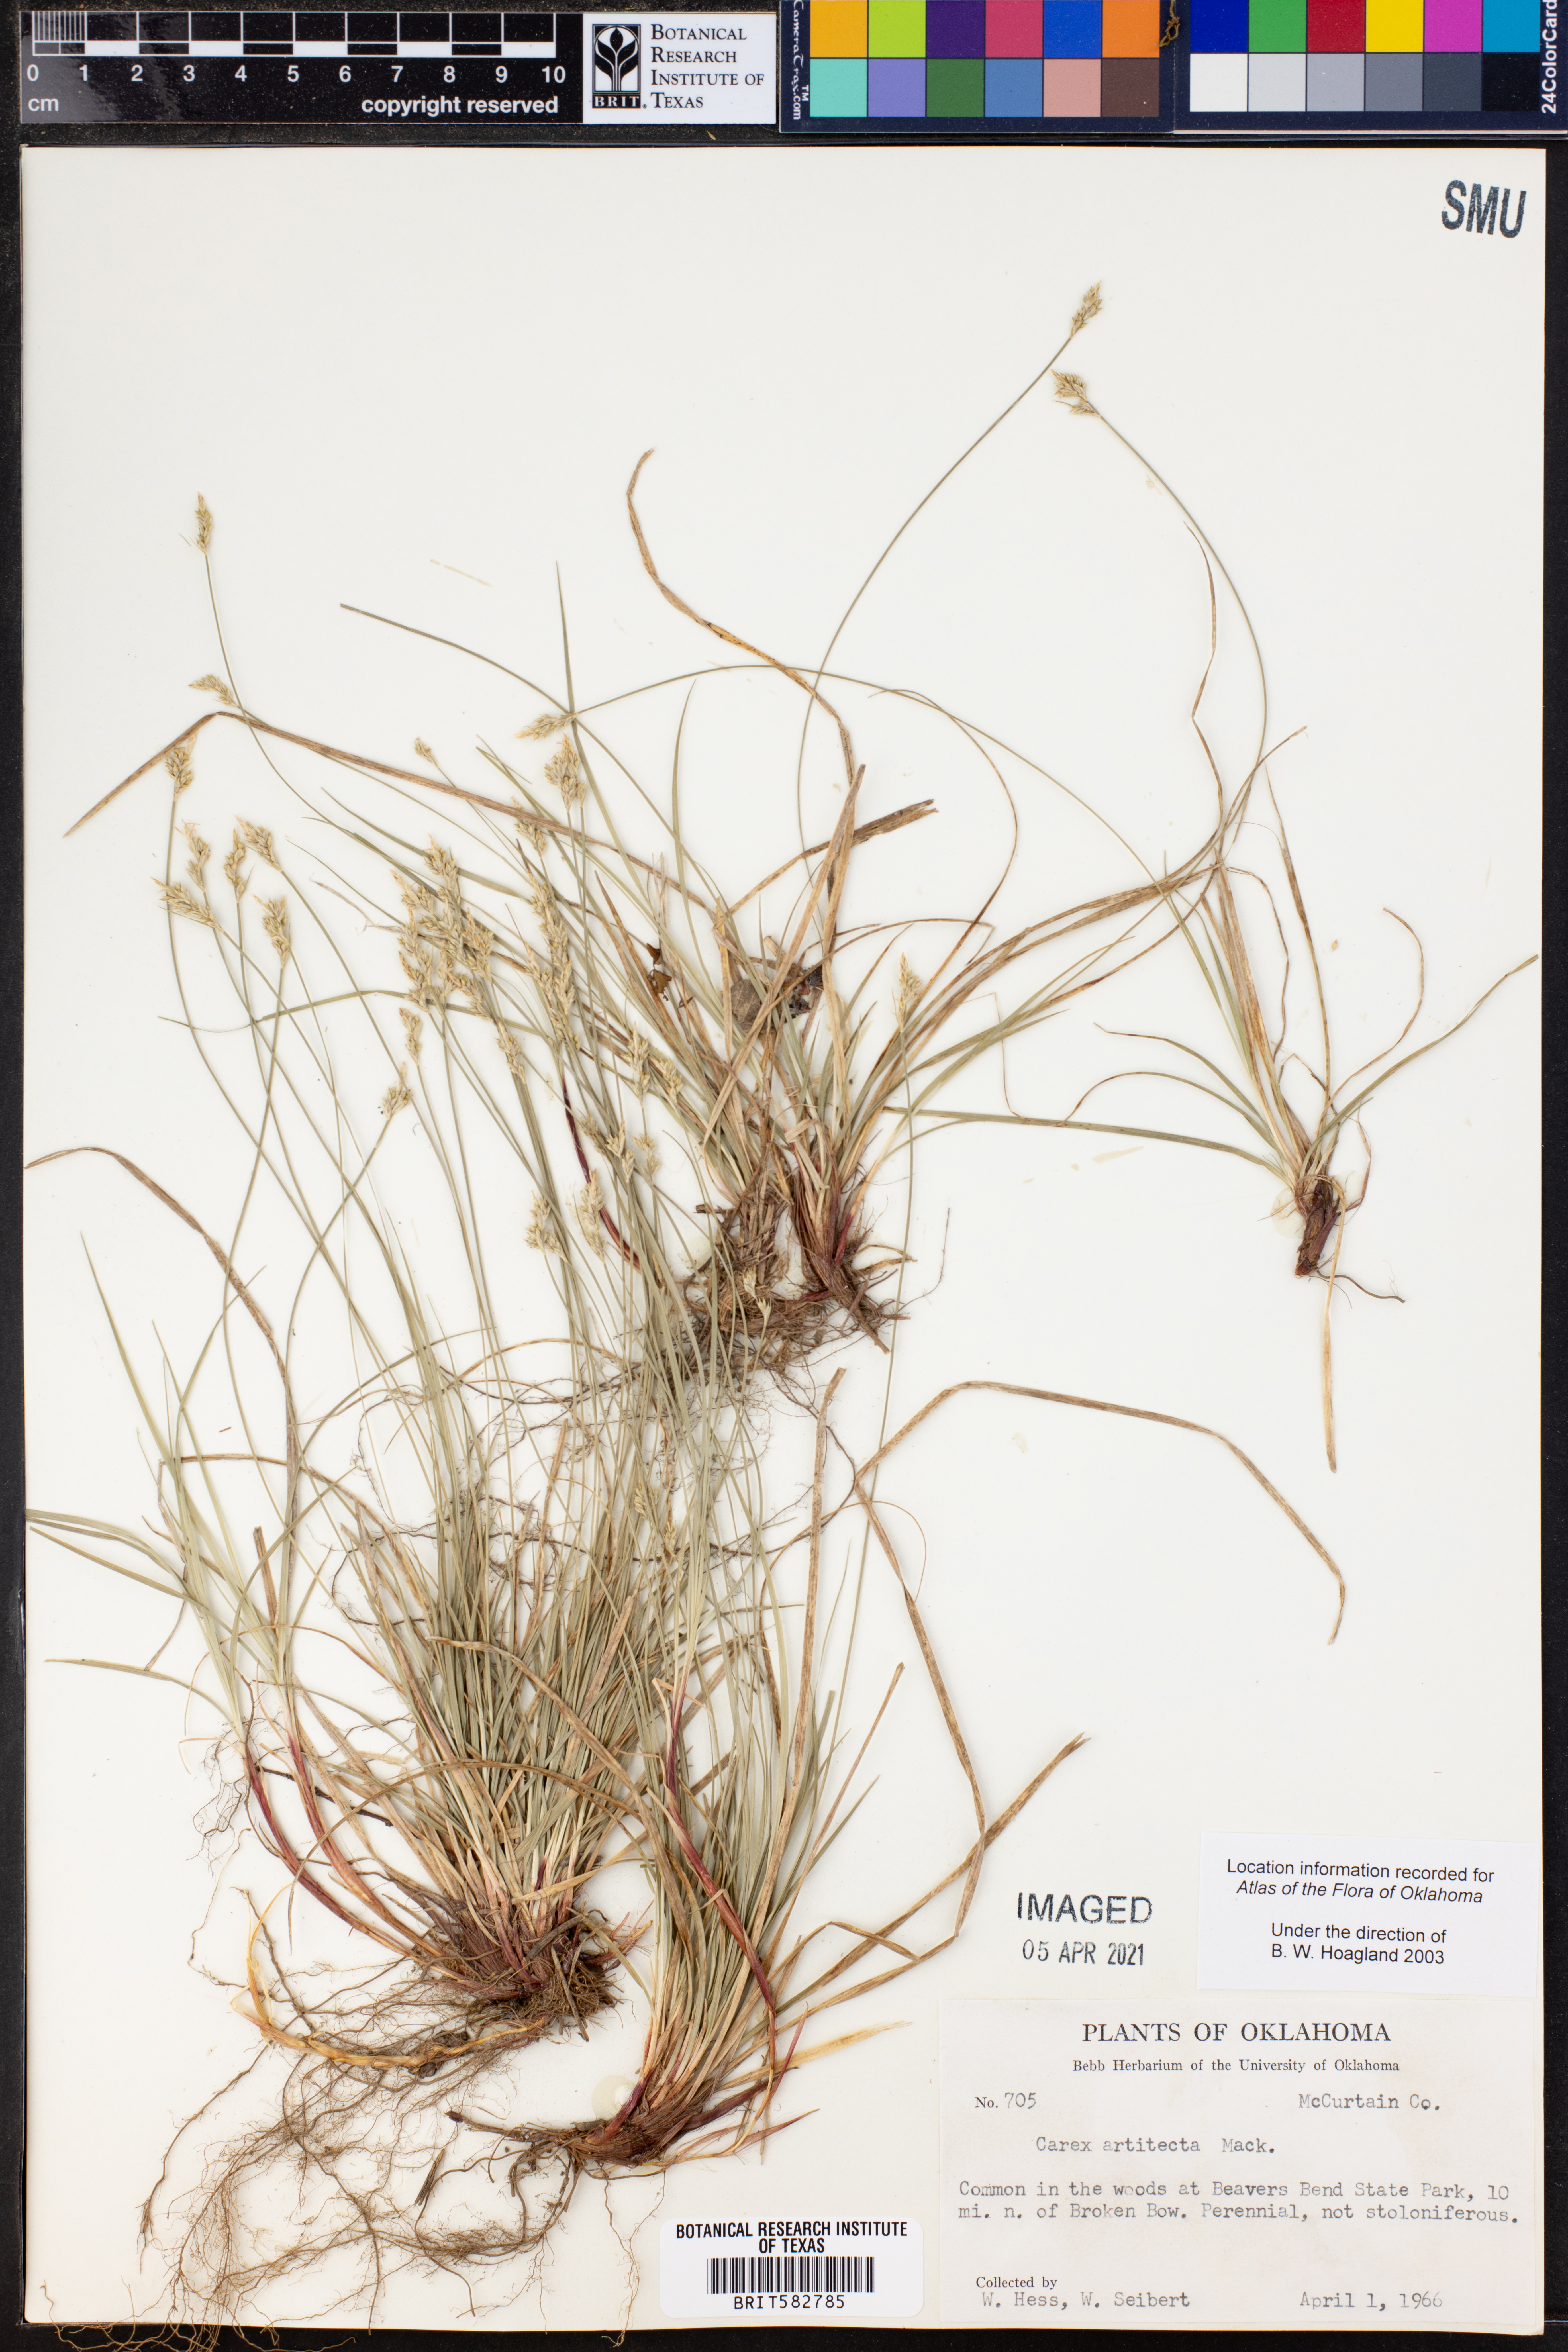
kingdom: Plantae
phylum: Tracheophyta
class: Liliopsida
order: Poales
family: Cyperaceae
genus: Carex
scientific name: Carex albicans
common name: Bellow-beaked sedge
